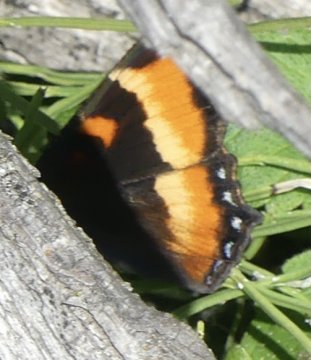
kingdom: Animalia
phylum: Arthropoda
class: Insecta
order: Lepidoptera
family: Nymphalidae
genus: Aglais
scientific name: Aglais milberti
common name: Milbert's Tortoiseshell
